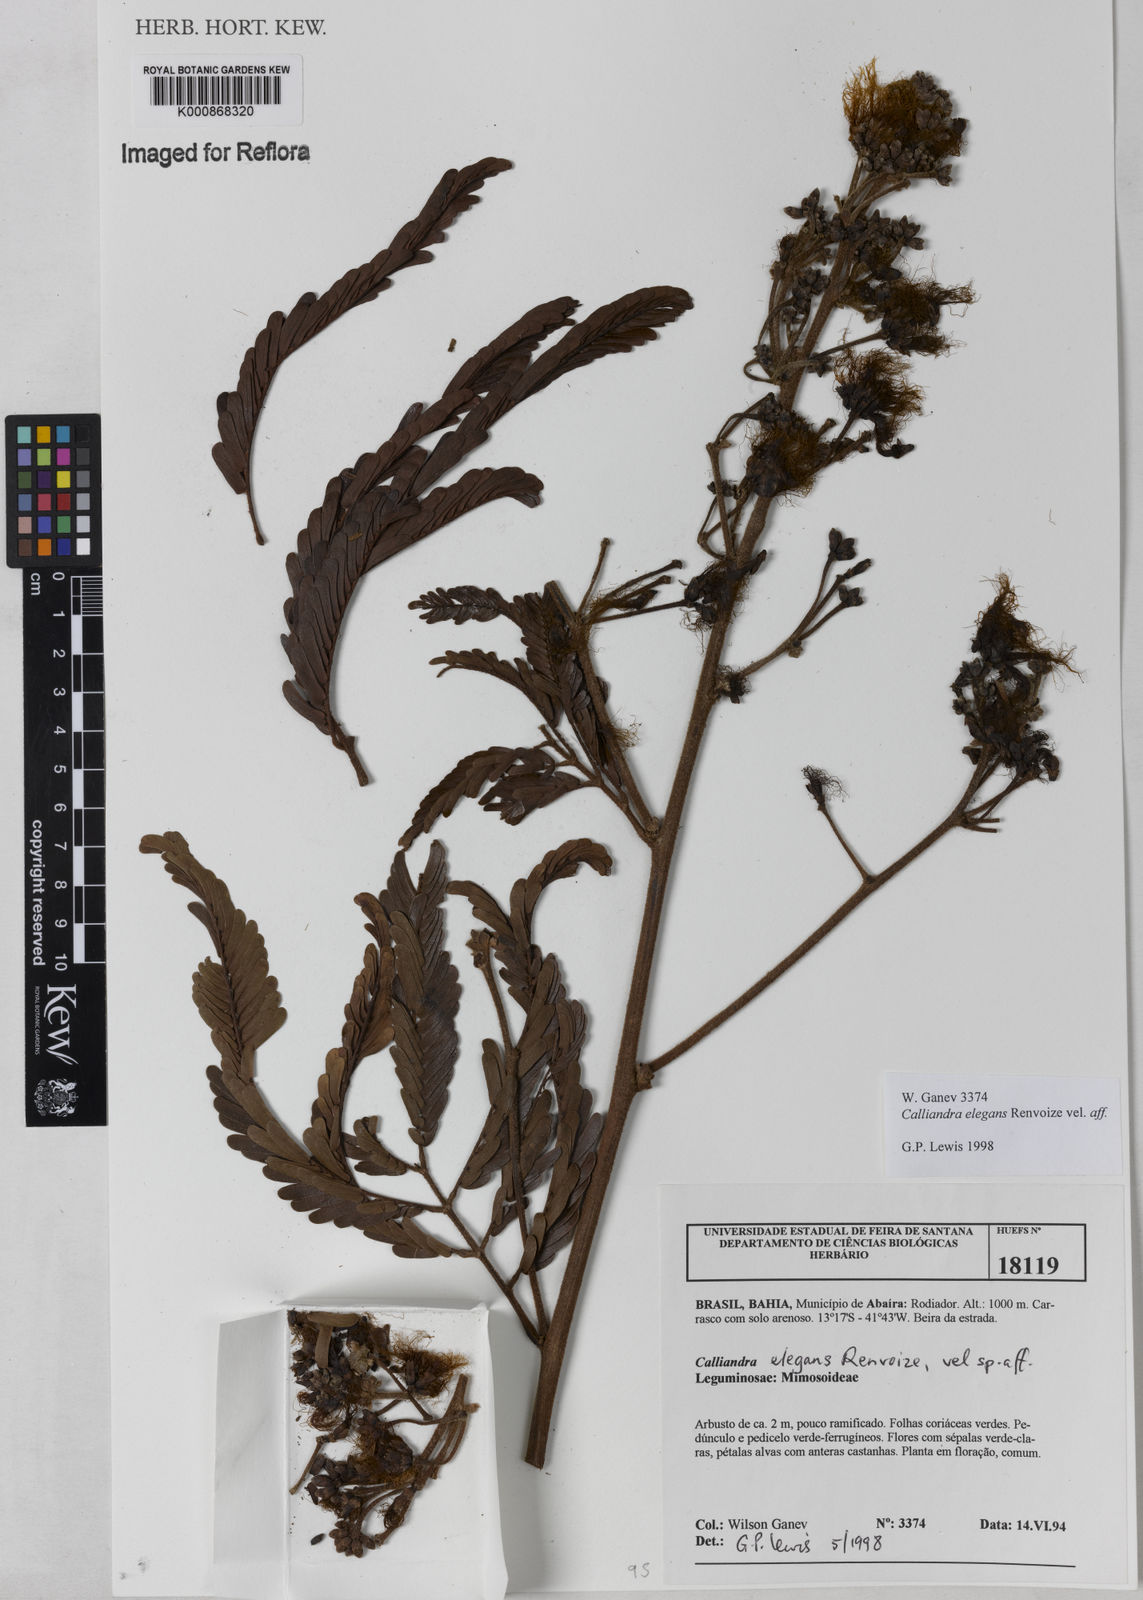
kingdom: Plantae
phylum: Tracheophyta
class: Magnoliopsida
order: Fabales
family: Fabaceae
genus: Calliandra
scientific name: Calliandra elegans
